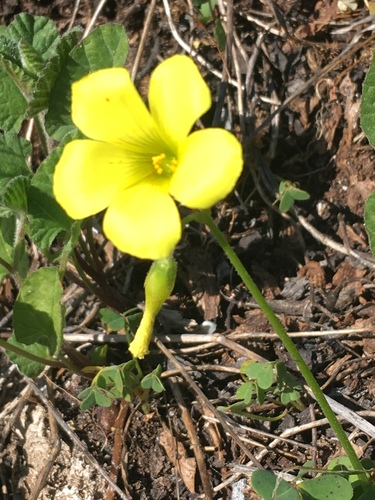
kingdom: Plantae
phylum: Tracheophyta
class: Magnoliopsida
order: Oxalidales
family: Oxalidaceae
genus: Oxalis
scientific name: Oxalis pes-caprae
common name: Bermuda-buttercup
